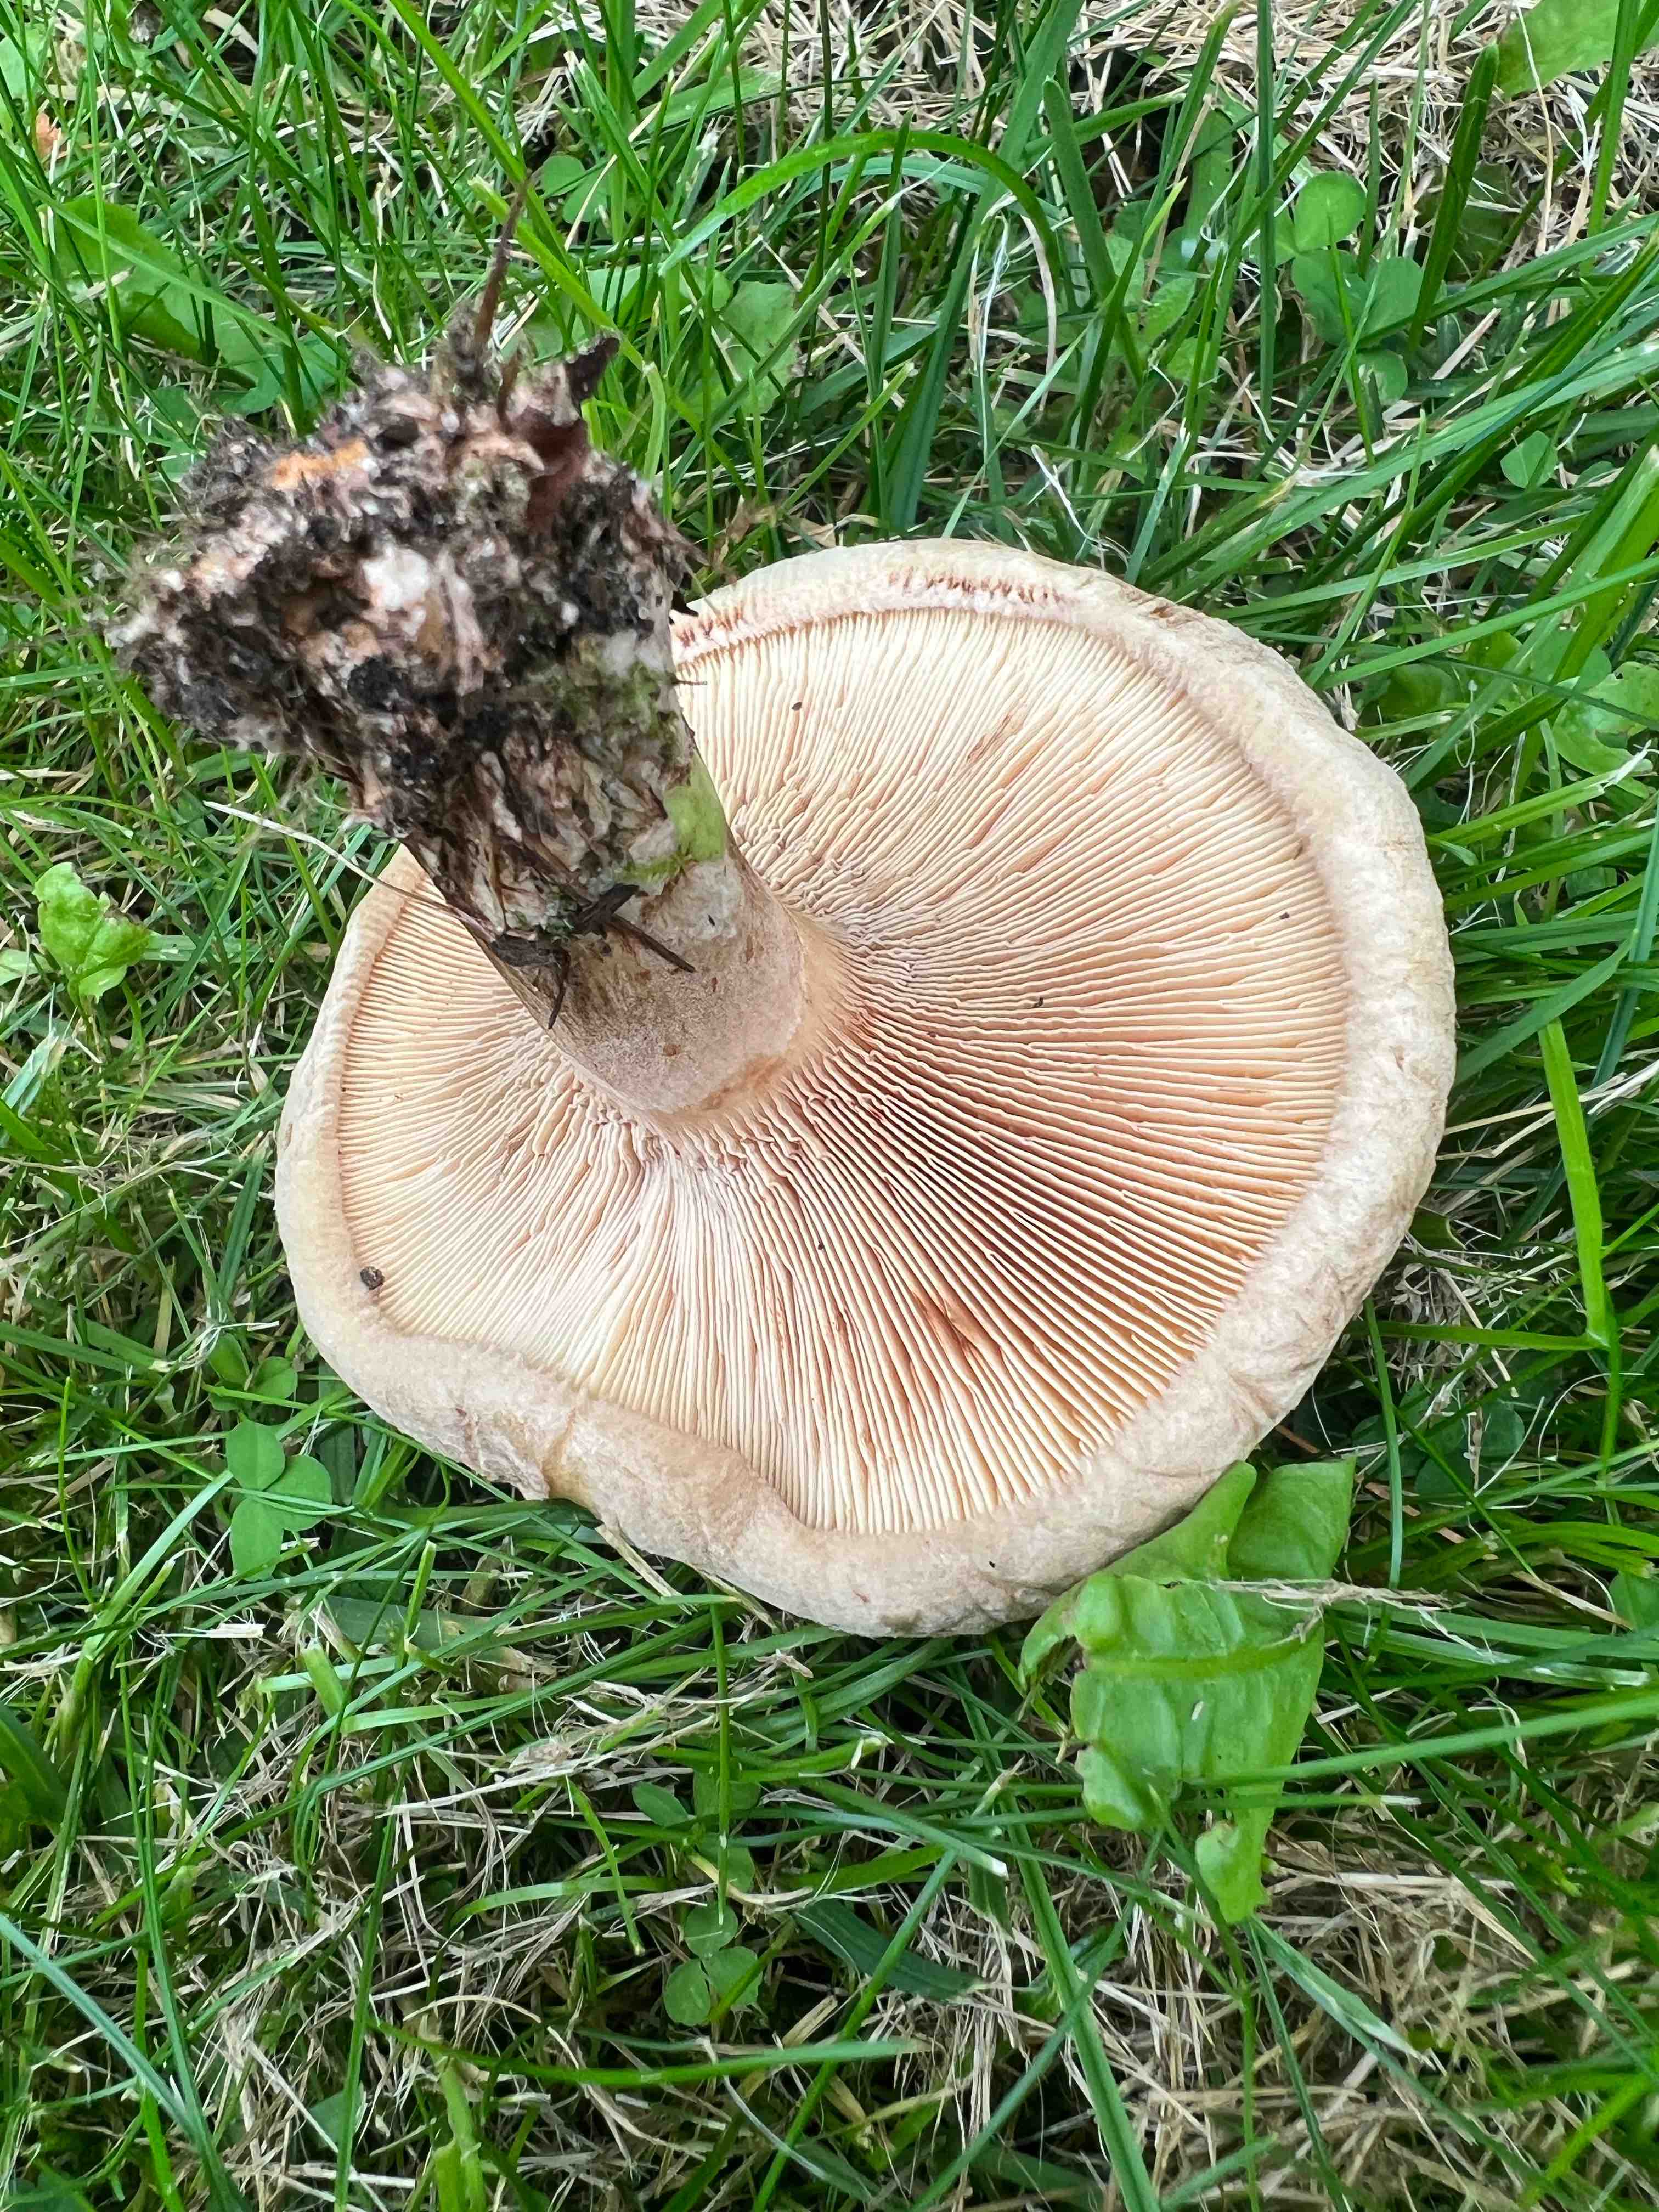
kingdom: Fungi
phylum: Basidiomycota
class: Agaricomycetes
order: Boletales
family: Paxillaceae
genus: Paxillus
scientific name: Paxillus
